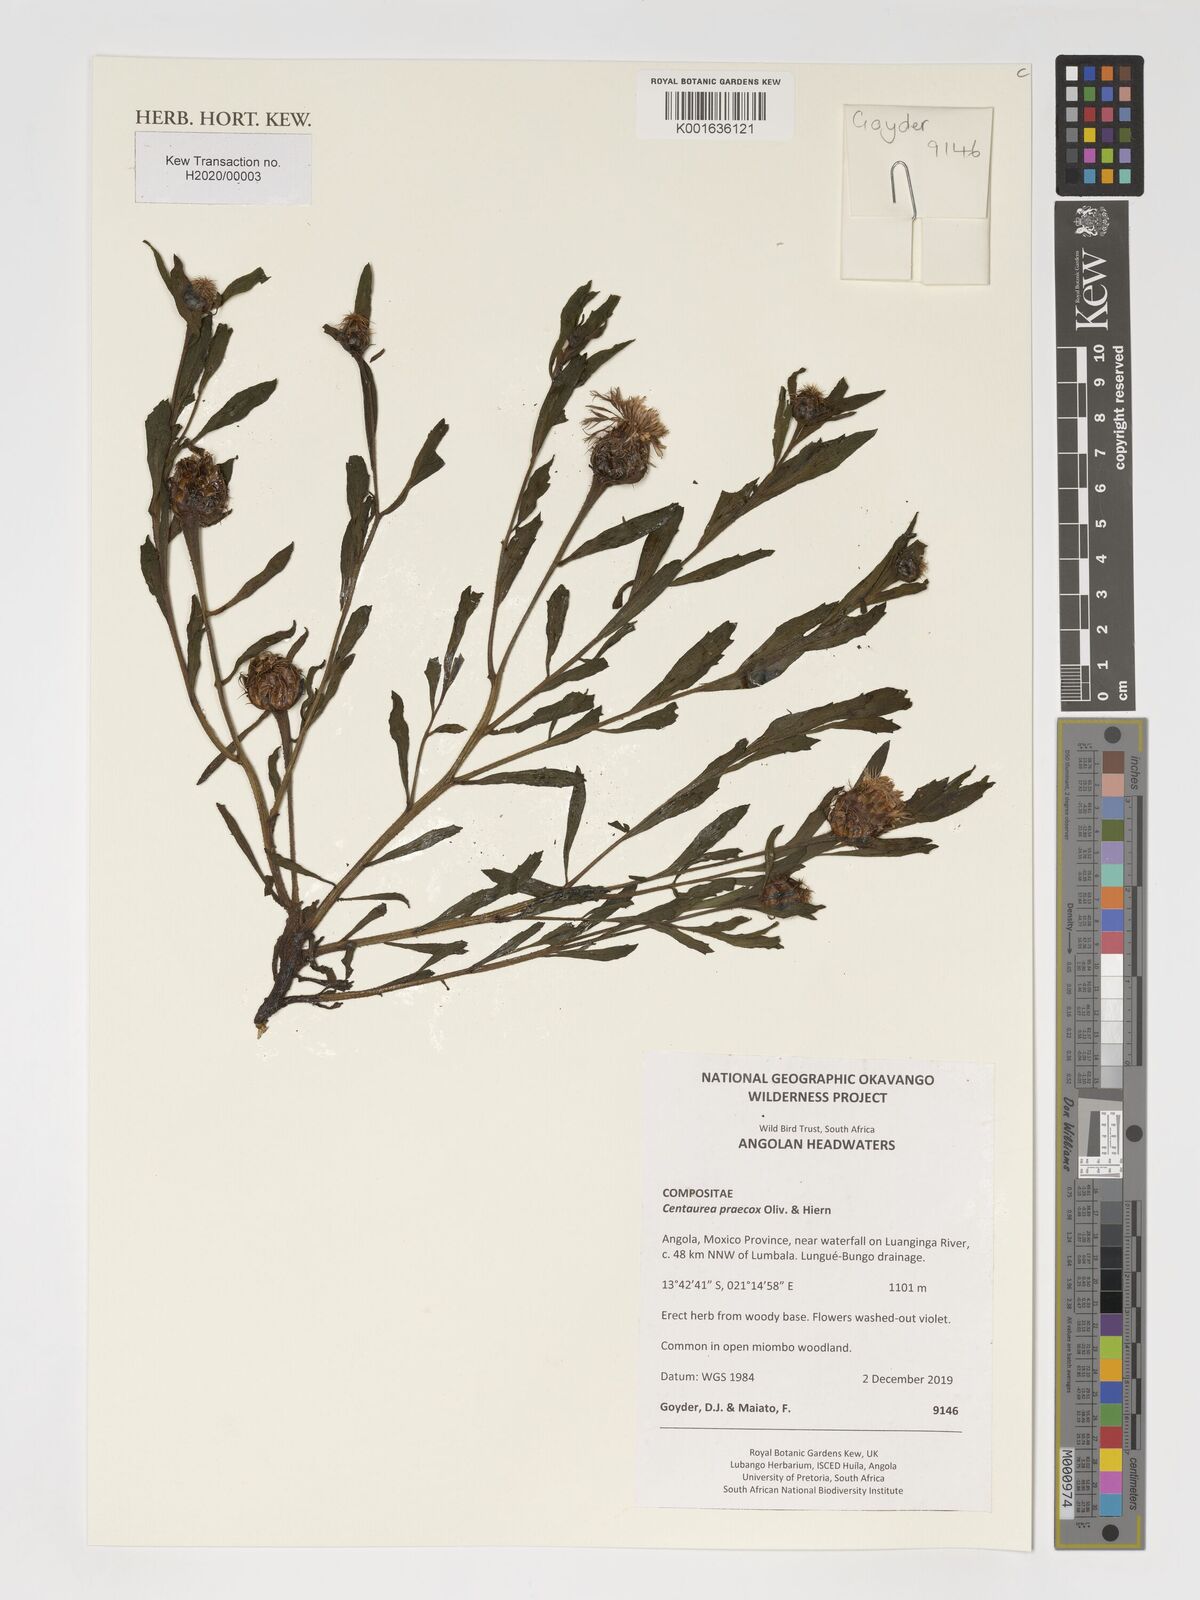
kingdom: Plantae
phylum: Tracheophyta
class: Magnoliopsida
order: Asterales
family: Asteraceae
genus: Centaurea
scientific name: Centaurea praecox
